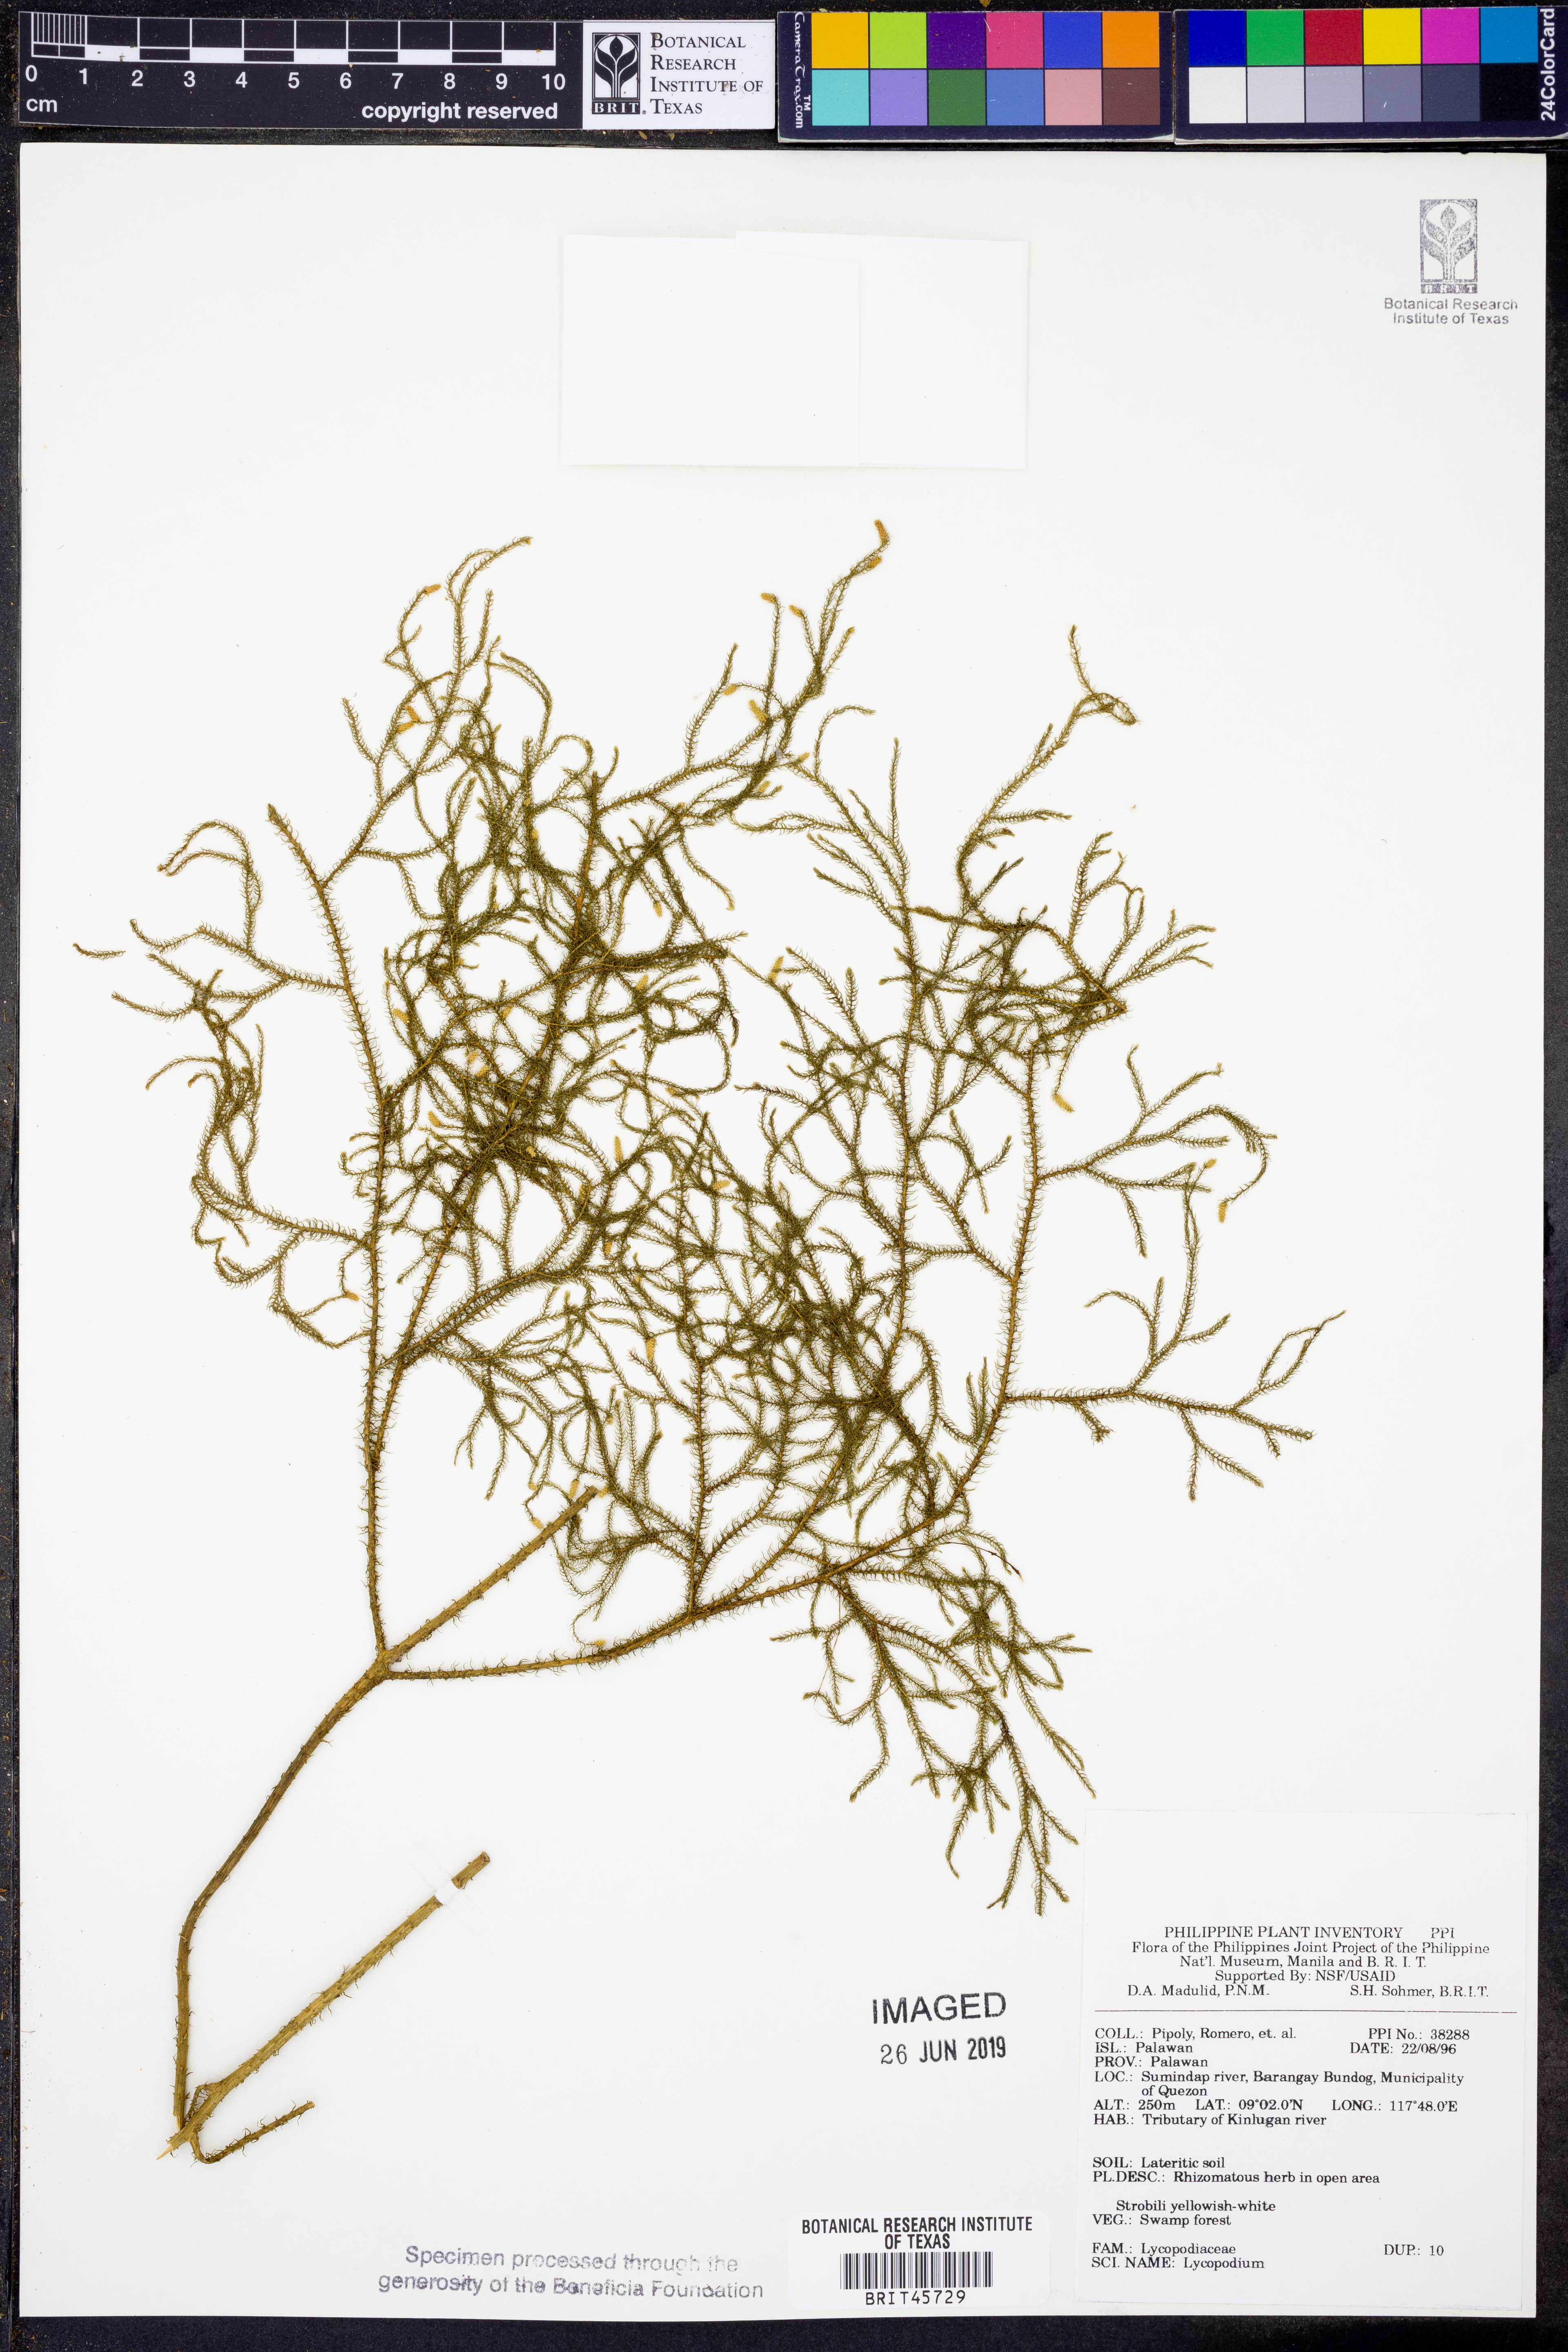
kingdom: Plantae
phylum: Tracheophyta
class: Lycopodiopsida
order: Lycopodiales
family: Lycopodiaceae
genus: Lycopodium
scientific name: Lycopodium
